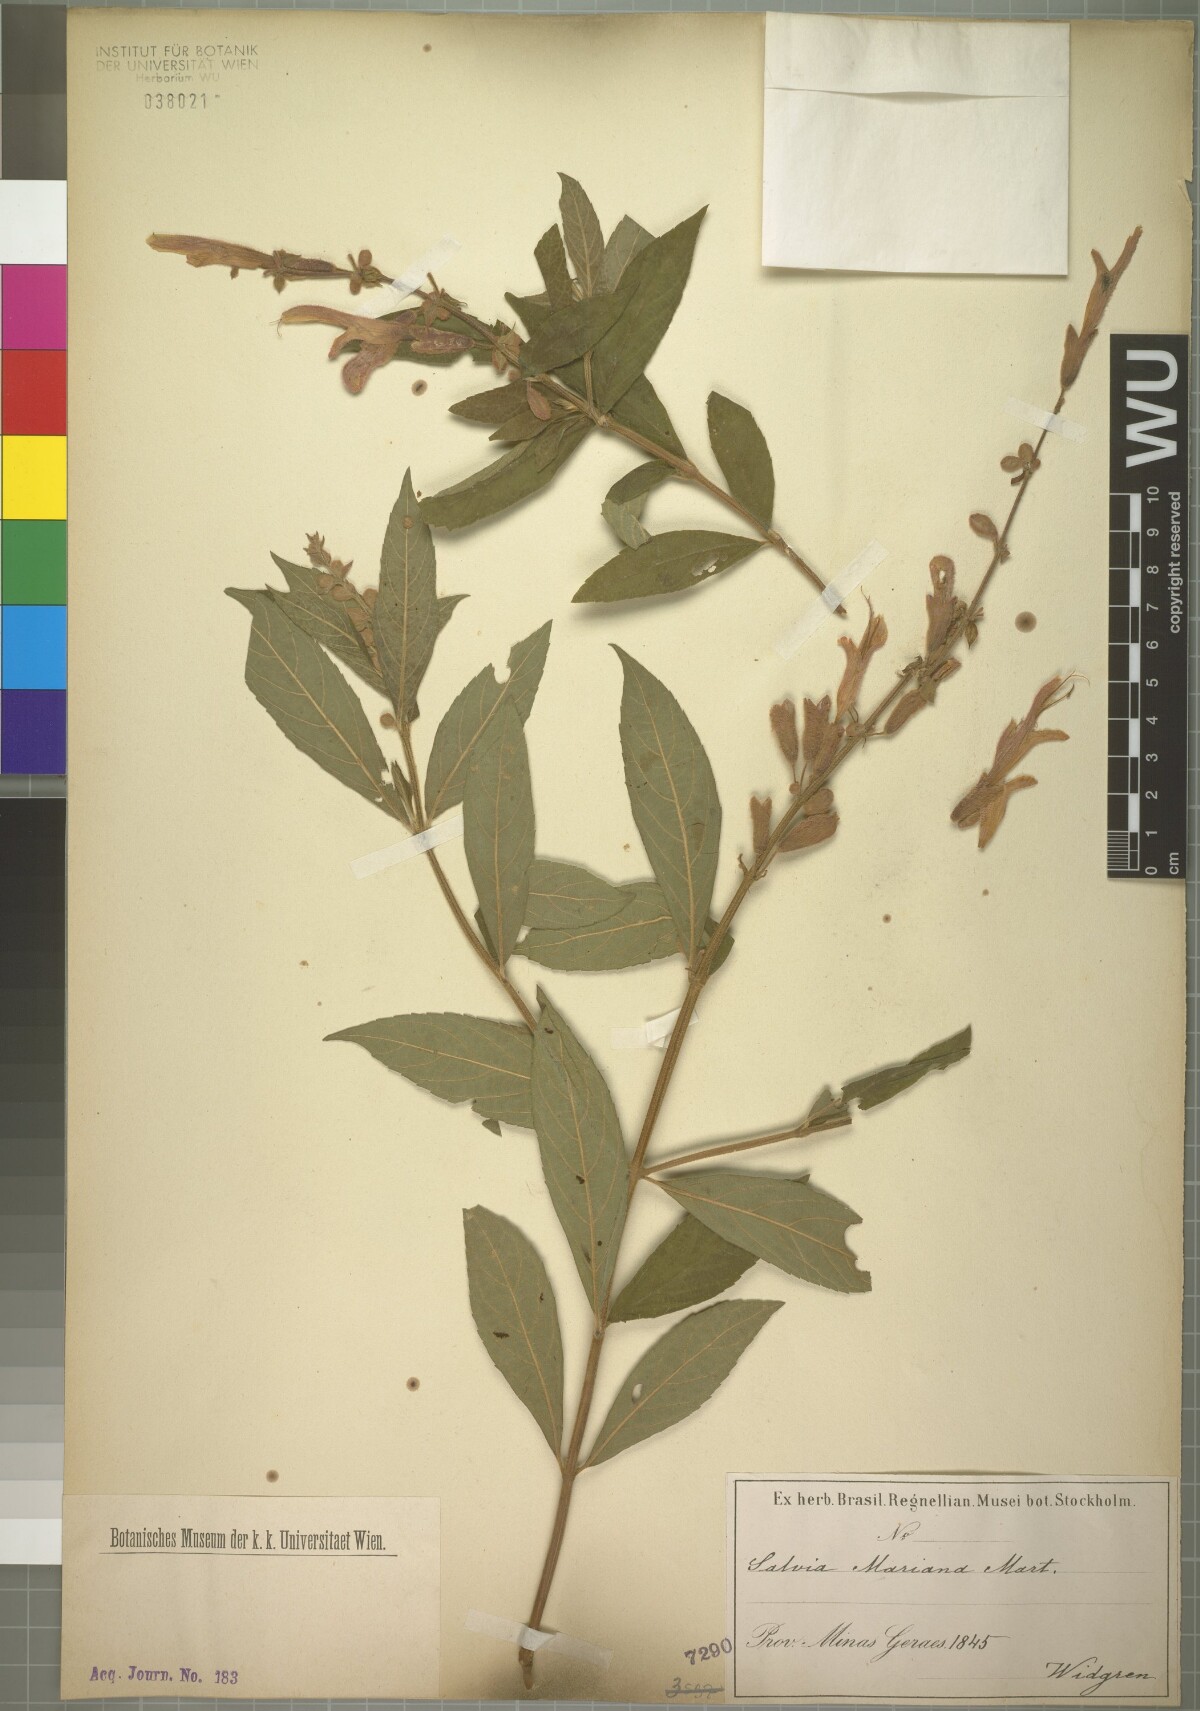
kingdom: Plantae
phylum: Tracheophyta
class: Magnoliopsida
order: Lamiales
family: Lamiaceae
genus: Salvia
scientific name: Salvia salicifolia
